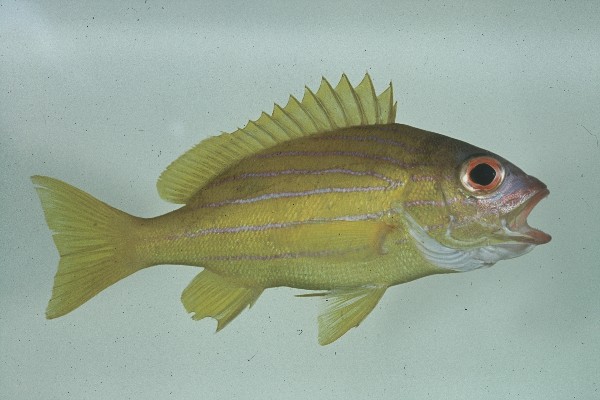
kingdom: Animalia
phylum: Chordata
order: Perciformes
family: Lutjanidae
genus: Lutjanus
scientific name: Lutjanus notatus
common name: Bluestriped snapper
